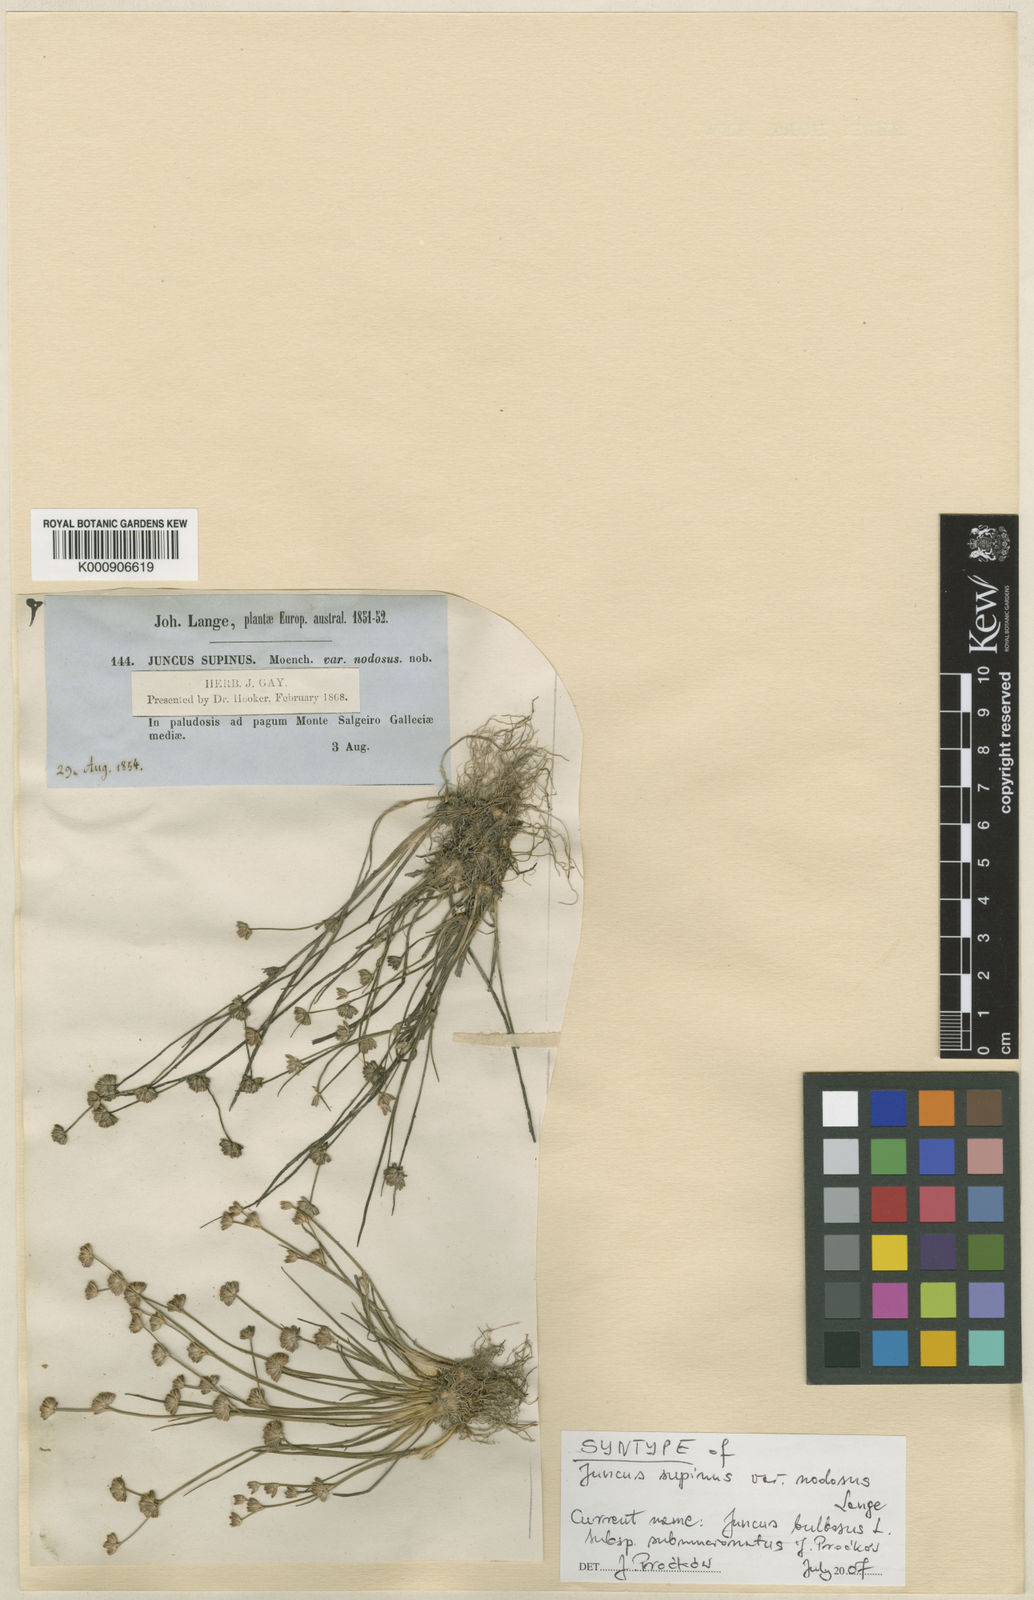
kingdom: Plantae
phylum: Tracheophyta
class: Liliopsida
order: Poales
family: Juncaceae
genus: Juncus
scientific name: Juncus bulbosus
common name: Bulbous rush
